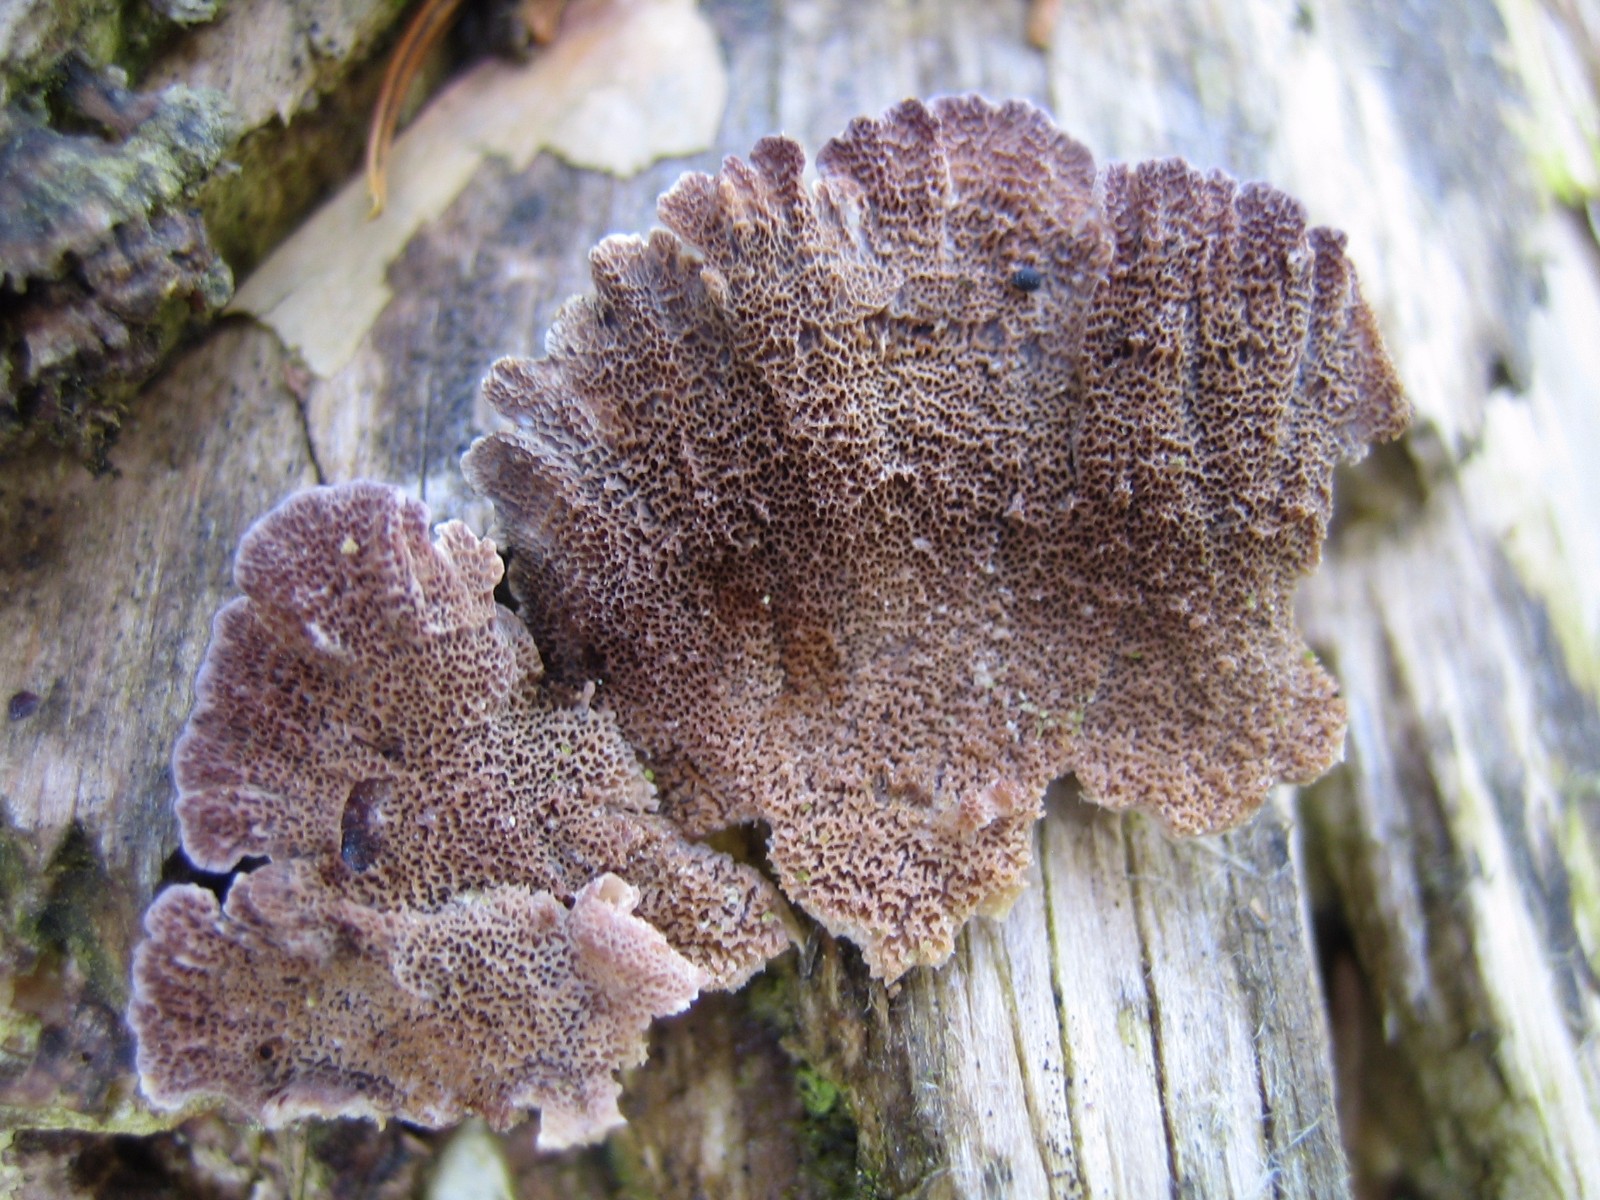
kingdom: Fungi
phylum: Basidiomycota
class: Agaricomycetes
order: Hymenochaetales
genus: Trichaptum
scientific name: Trichaptum abietinum
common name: almindelig violporesvamp
